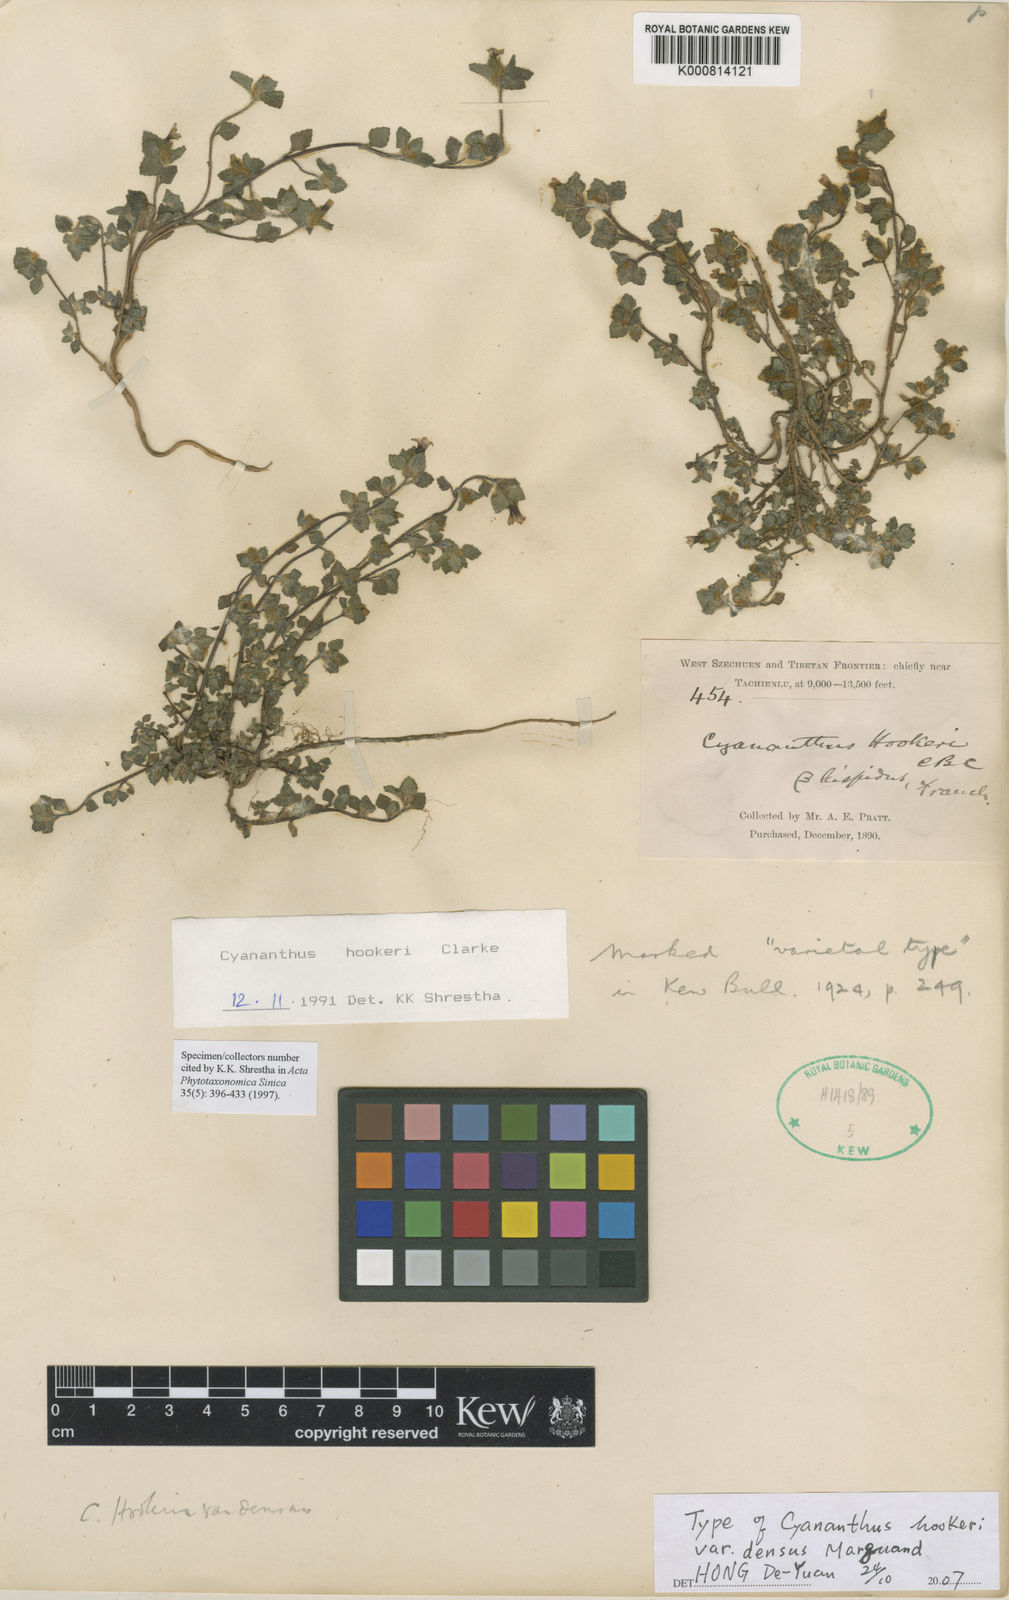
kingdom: Plantae
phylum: Tracheophyta
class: Magnoliopsida
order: Asterales
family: Campanulaceae
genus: Cyananthus
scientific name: Cyananthus hookeri
